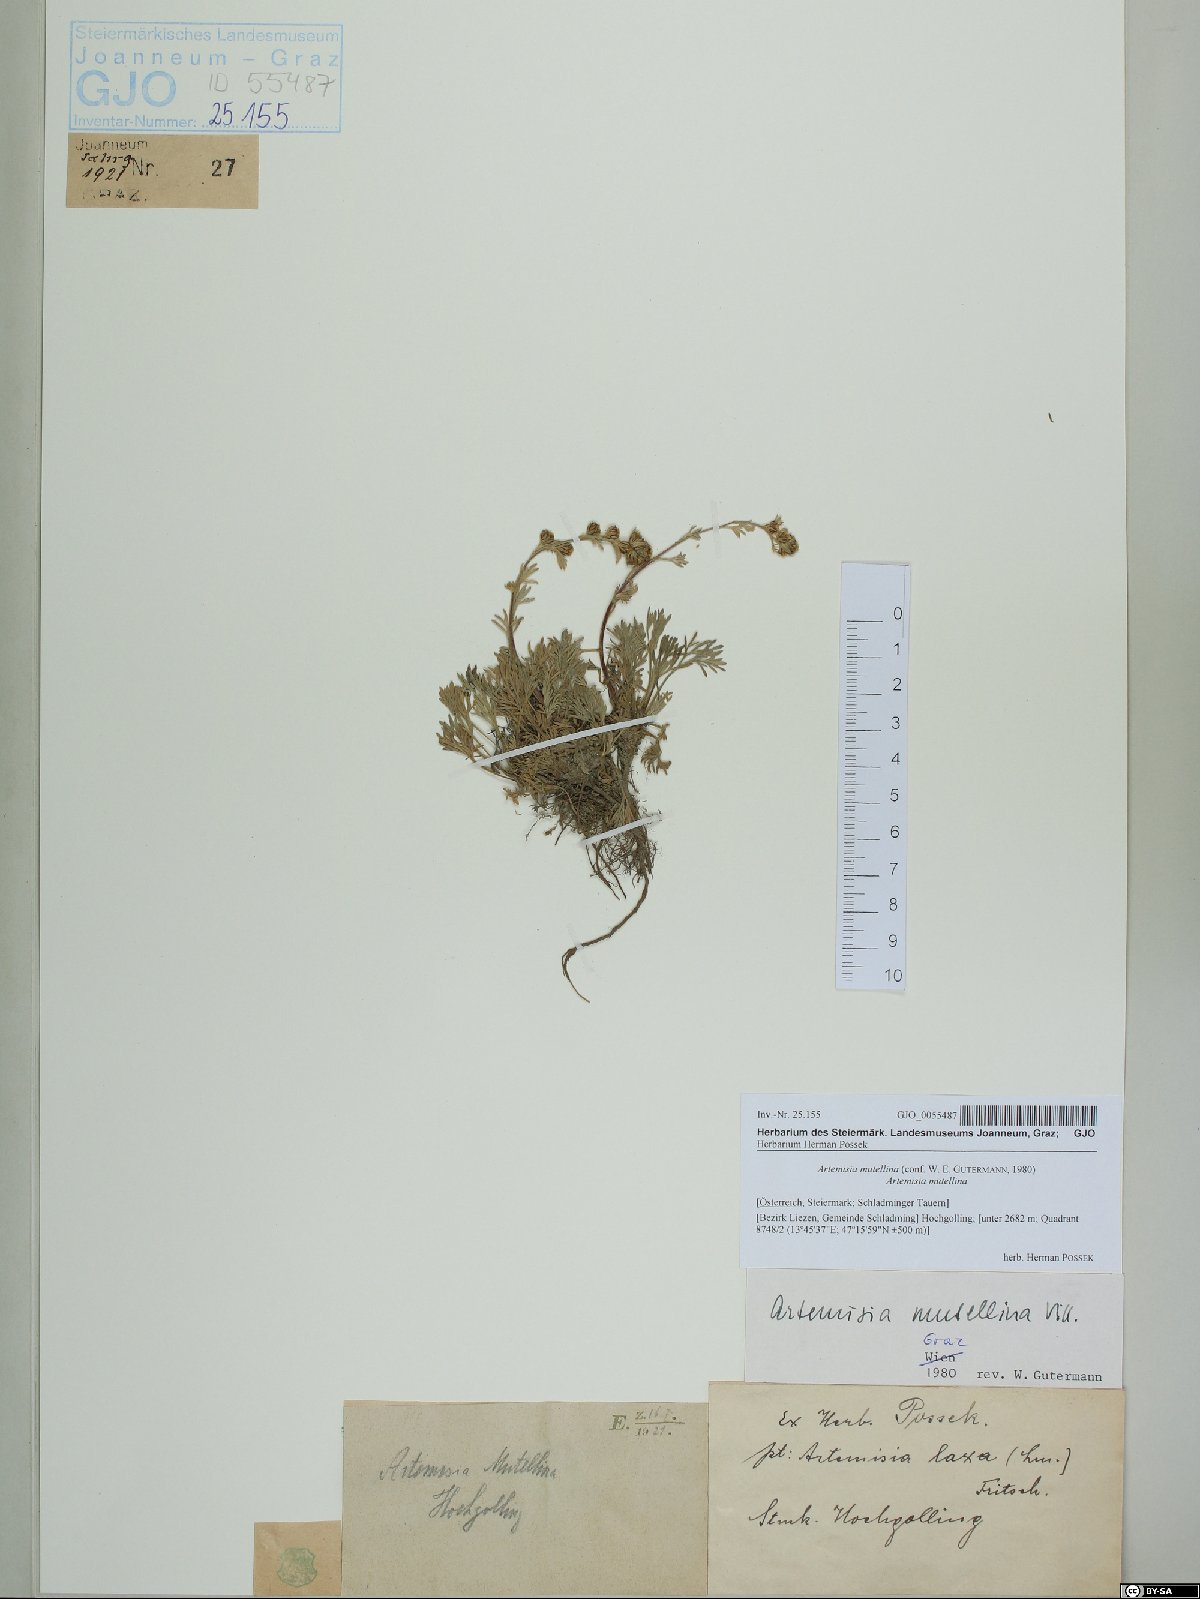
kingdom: Plantae
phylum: Tracheophyta
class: Magnoliopsida
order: Asterales
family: Asteraceae
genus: Artemisia
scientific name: Artemisia mutellina
